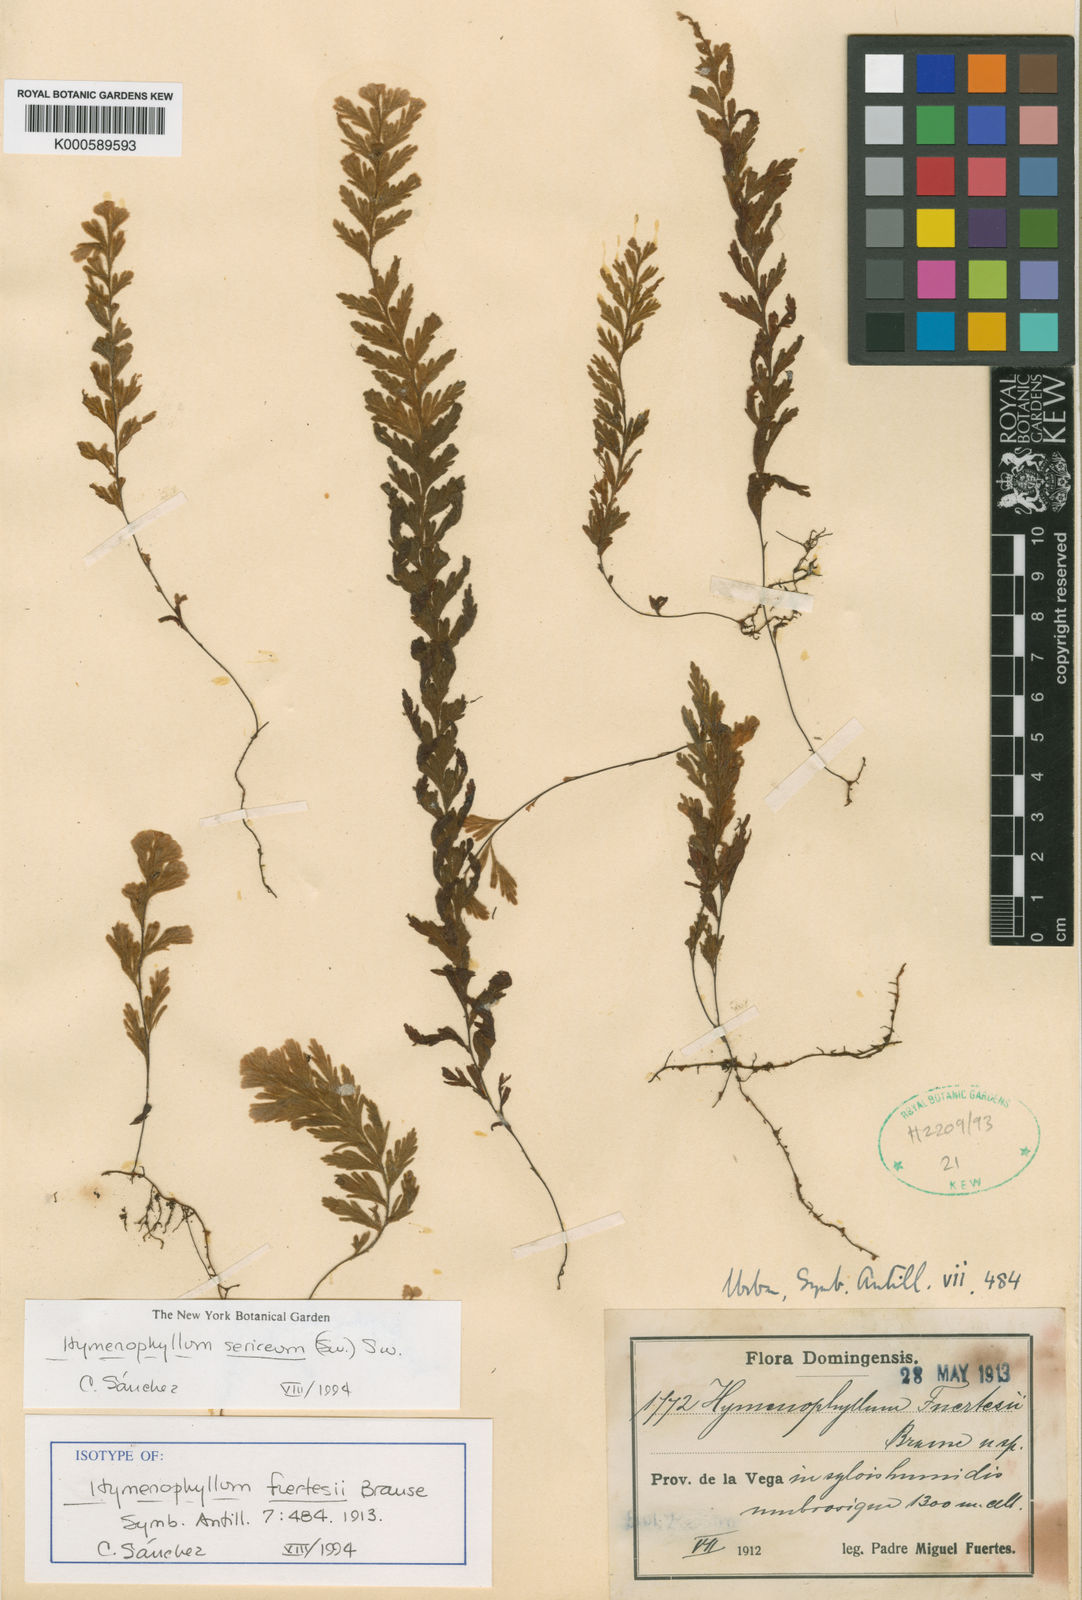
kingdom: Plantae
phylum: Tracheophyta
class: Polypodiopsida
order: Hymenophyllales
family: Hymenophyllaceae
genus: Hymenophyllum
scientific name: Hymenophyllum sericeum
